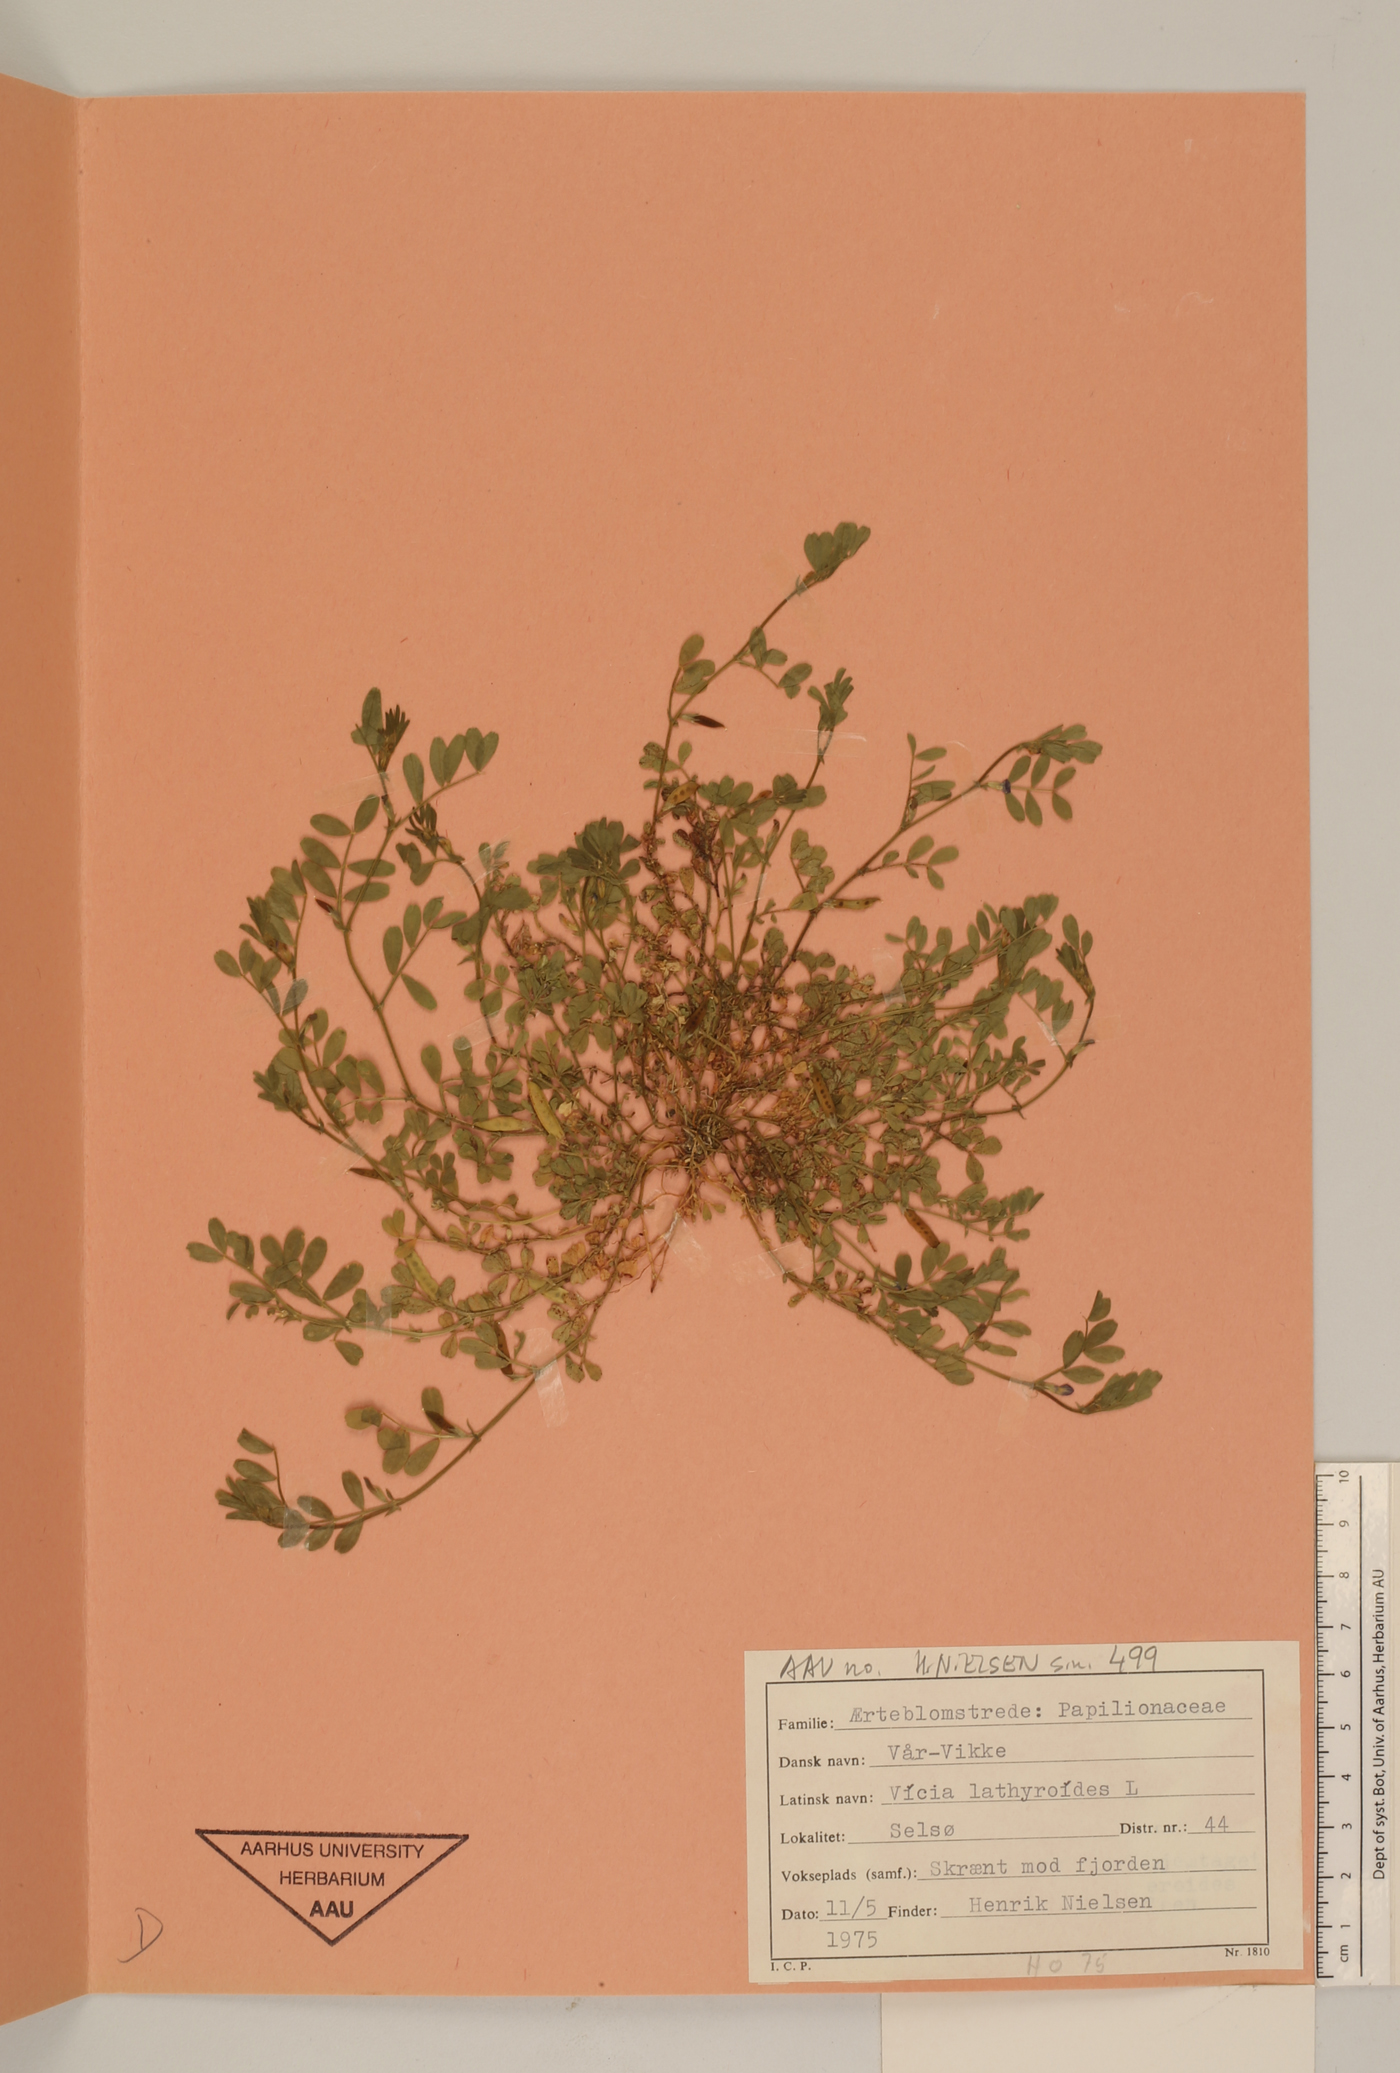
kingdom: Plantae
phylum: Tracheophyta
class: Magnoliopsida
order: Fabales
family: Fabaceae
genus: Vicia
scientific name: Vicia lathyroides
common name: Spring vetch
